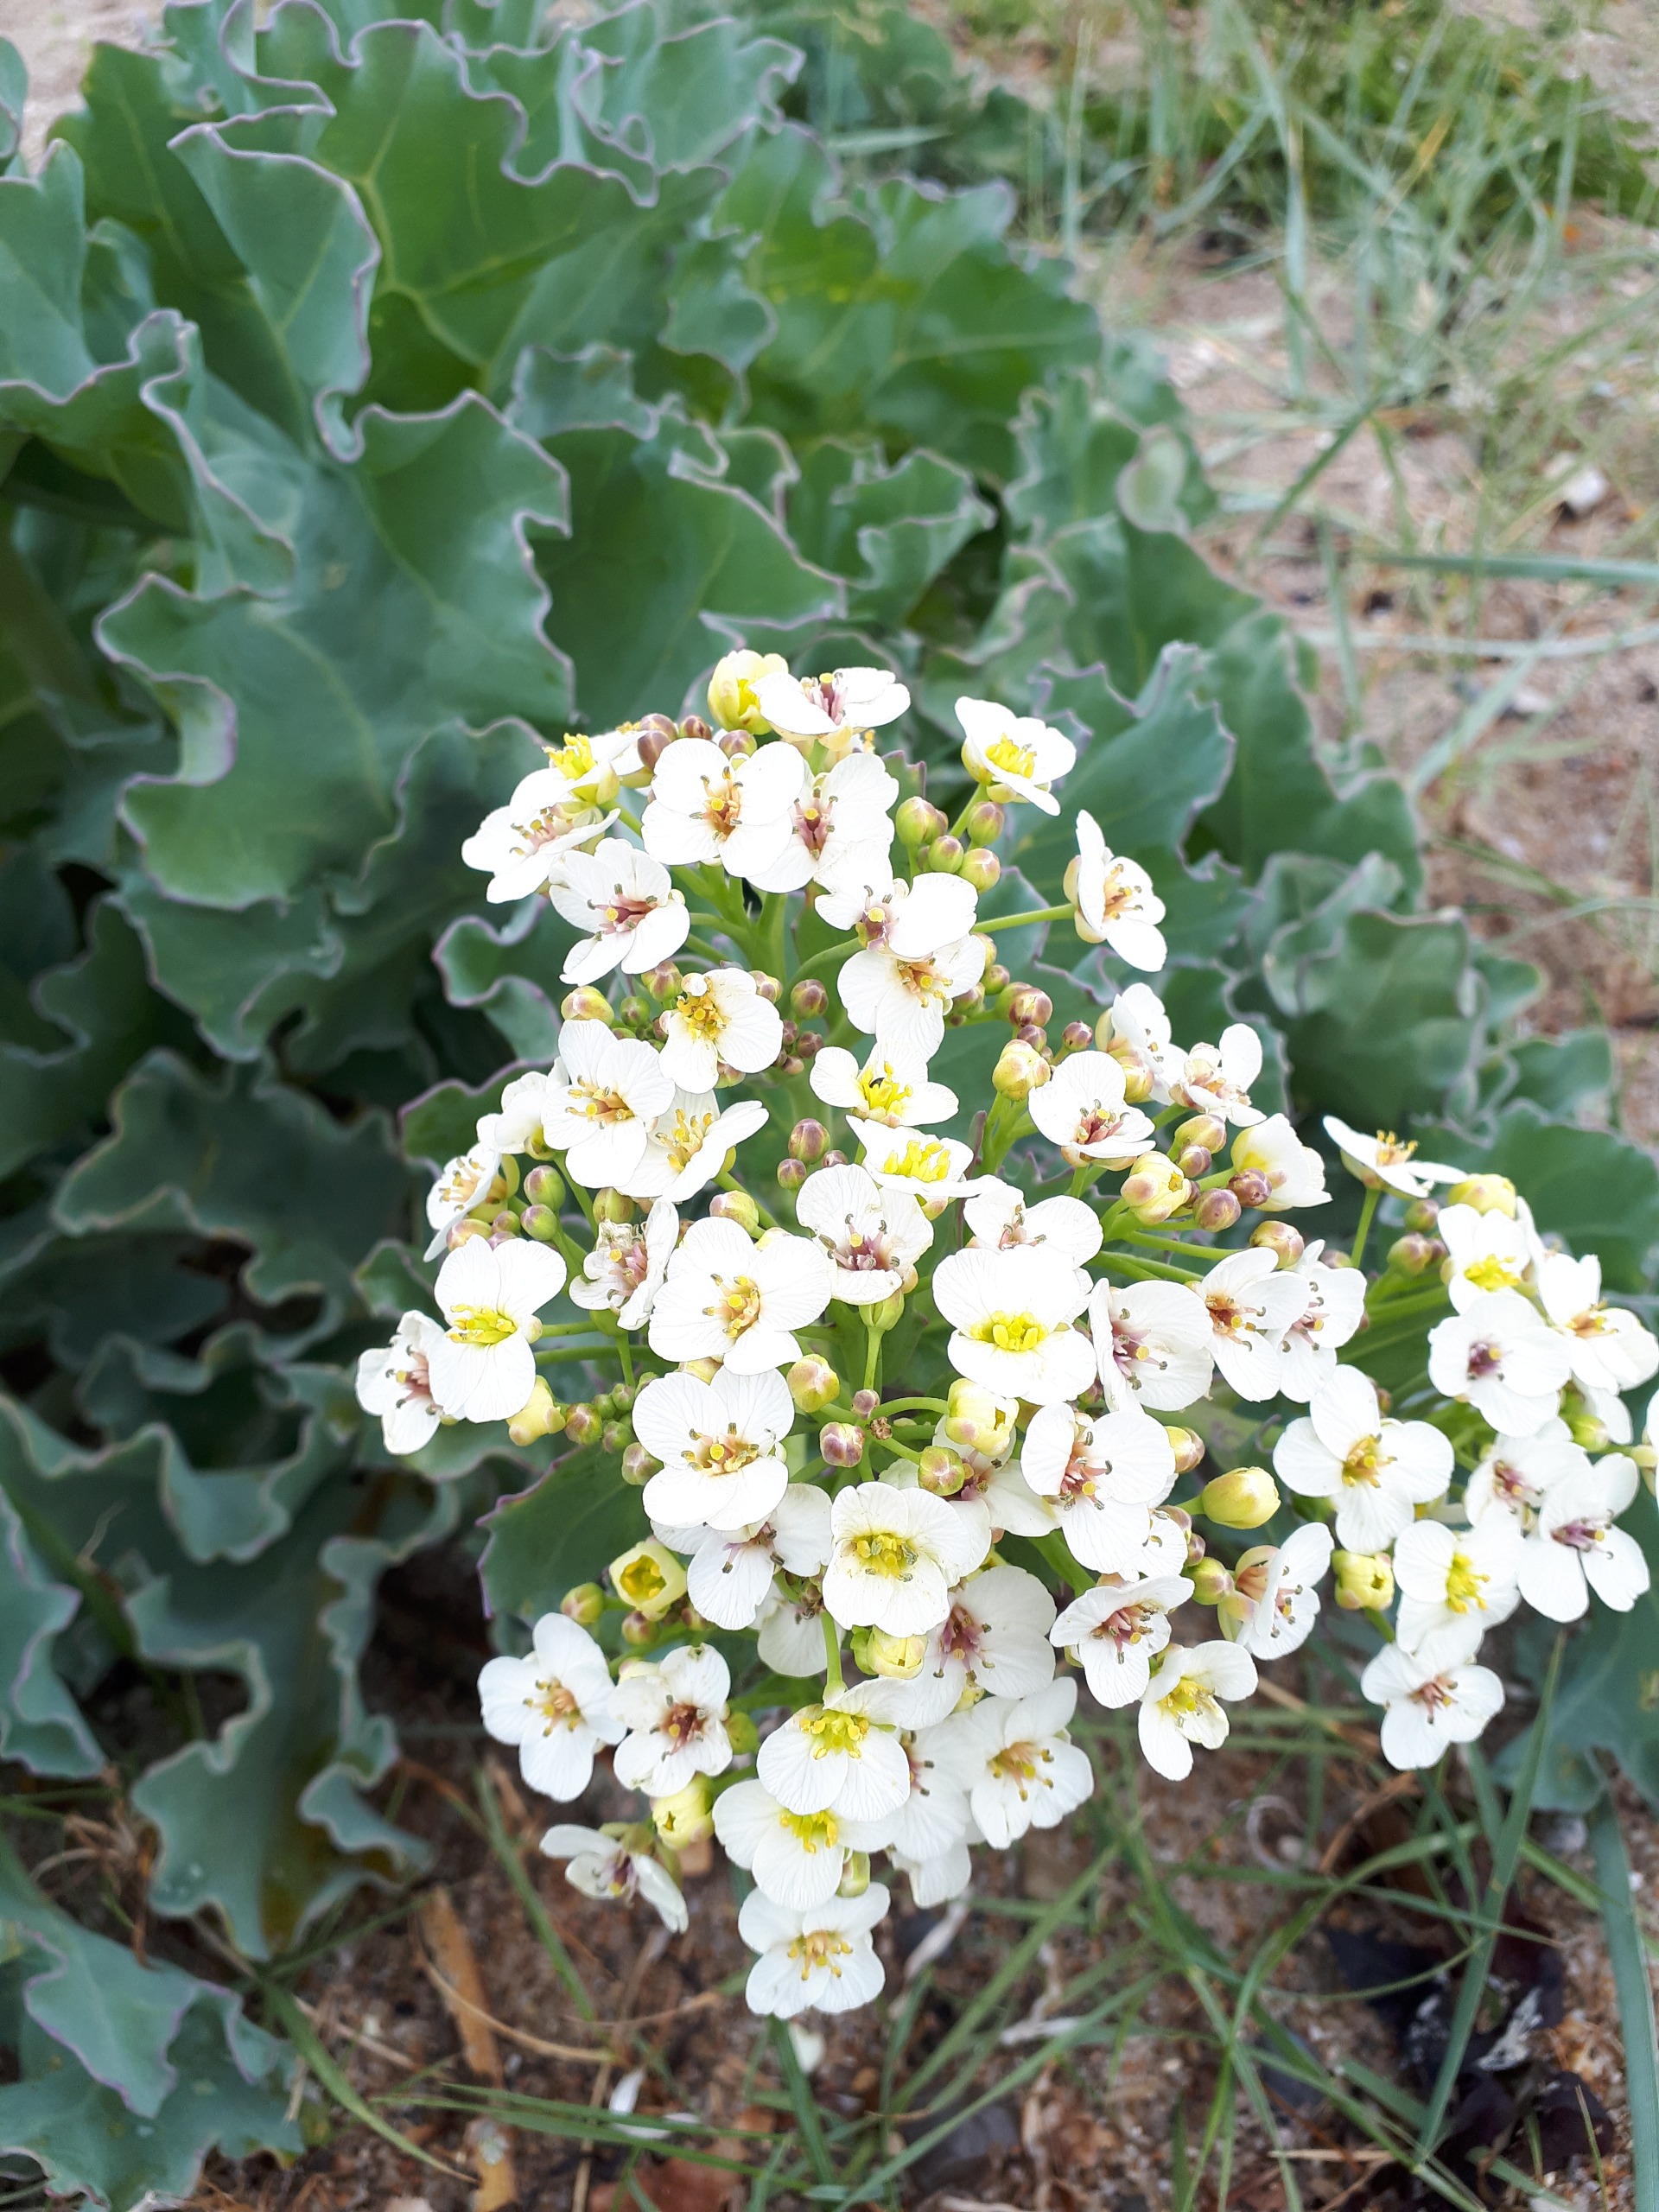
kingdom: Plantae
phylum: Tracheophyta
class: Magnoliopsida
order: Brassicales
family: Brassicaceae
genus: Crambe
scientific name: Crambe maritima
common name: Strandkål
